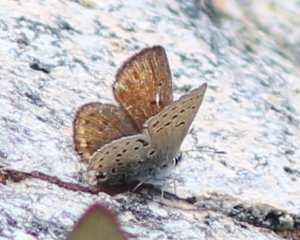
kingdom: Animalia
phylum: Arthropoda
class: Insecta
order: Lepidoptera
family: Lycaenidae
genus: Plebejus
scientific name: Plebejus saepiolus
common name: Greenish Blue
